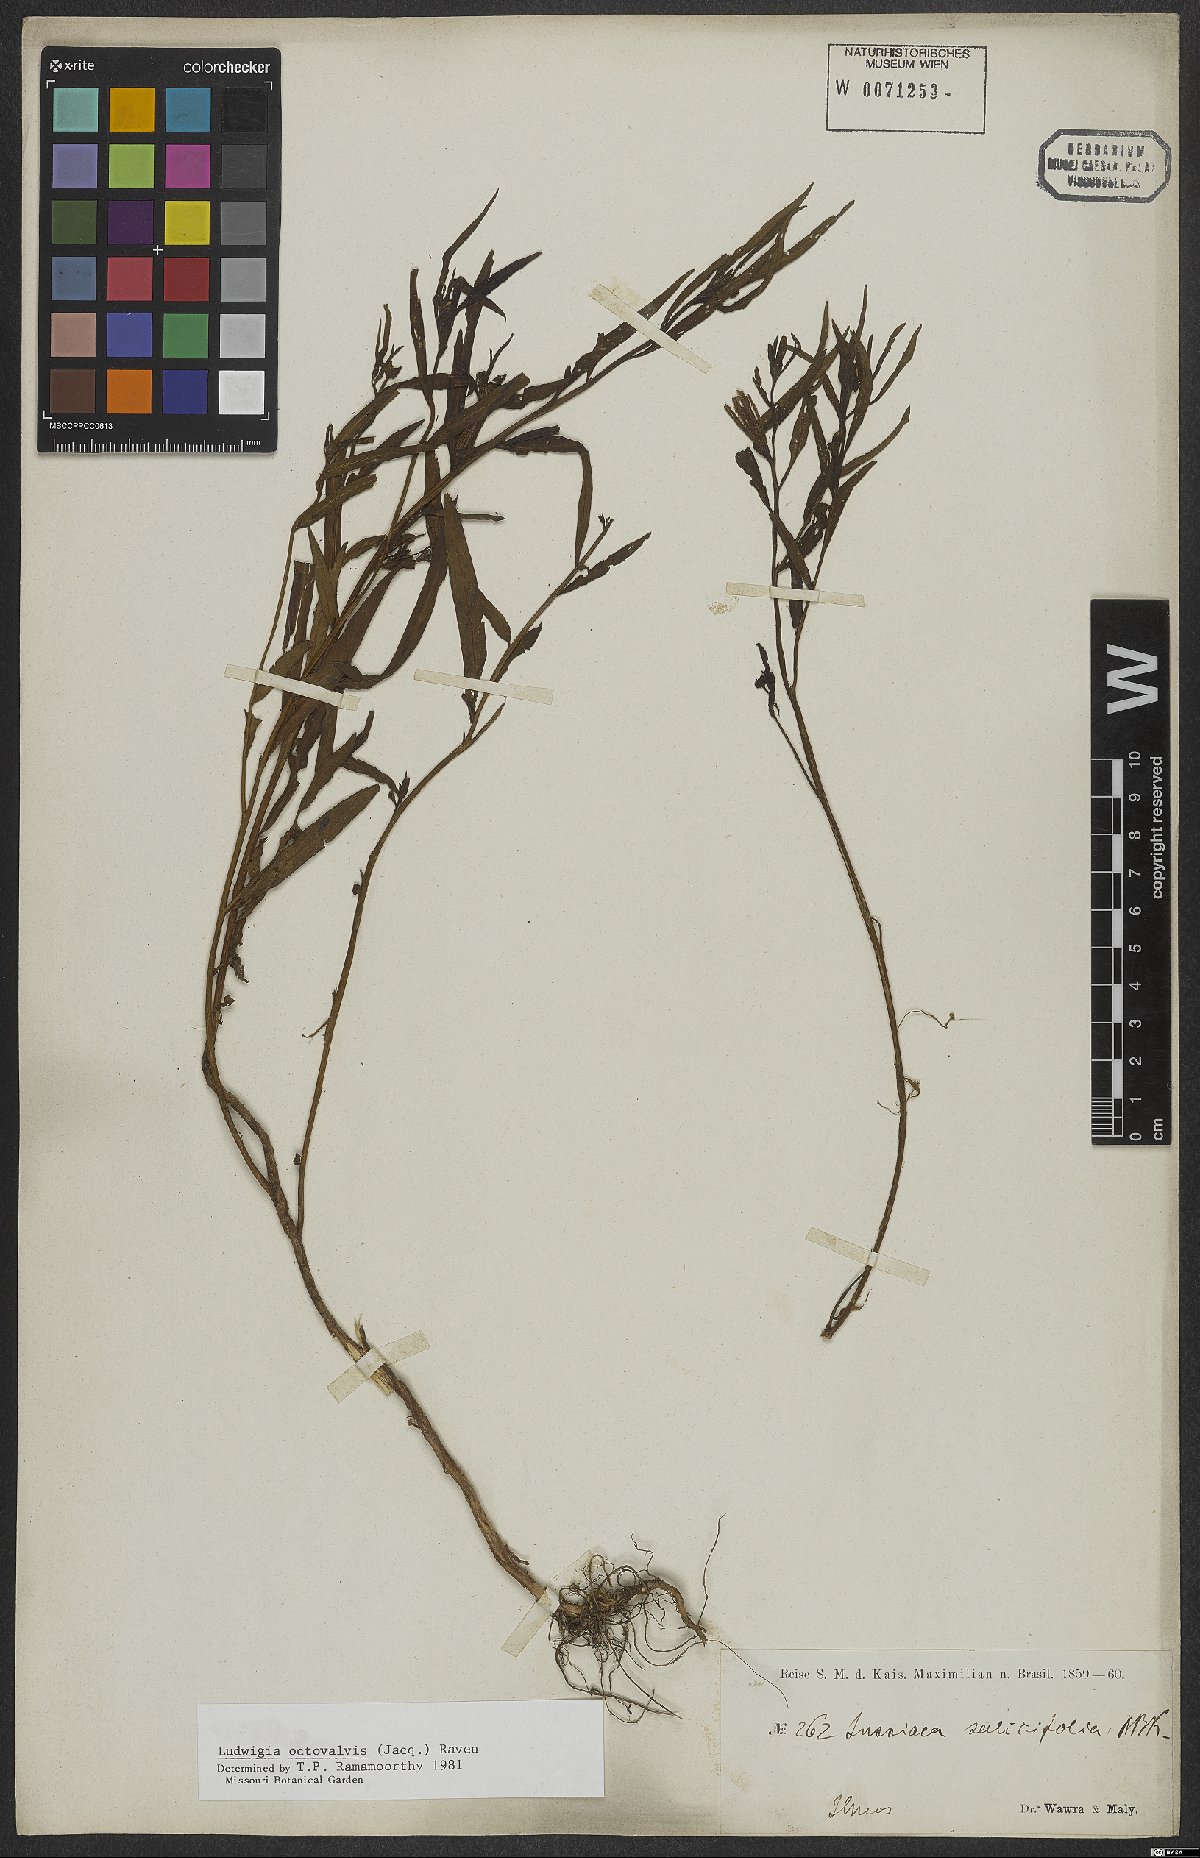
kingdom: Plantae
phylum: Tracheophyta
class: Magnoliopsida
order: Myrtales
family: Onagraceae
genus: Ludwigia
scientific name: Ludwigia octovalvis
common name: Water-primrose
